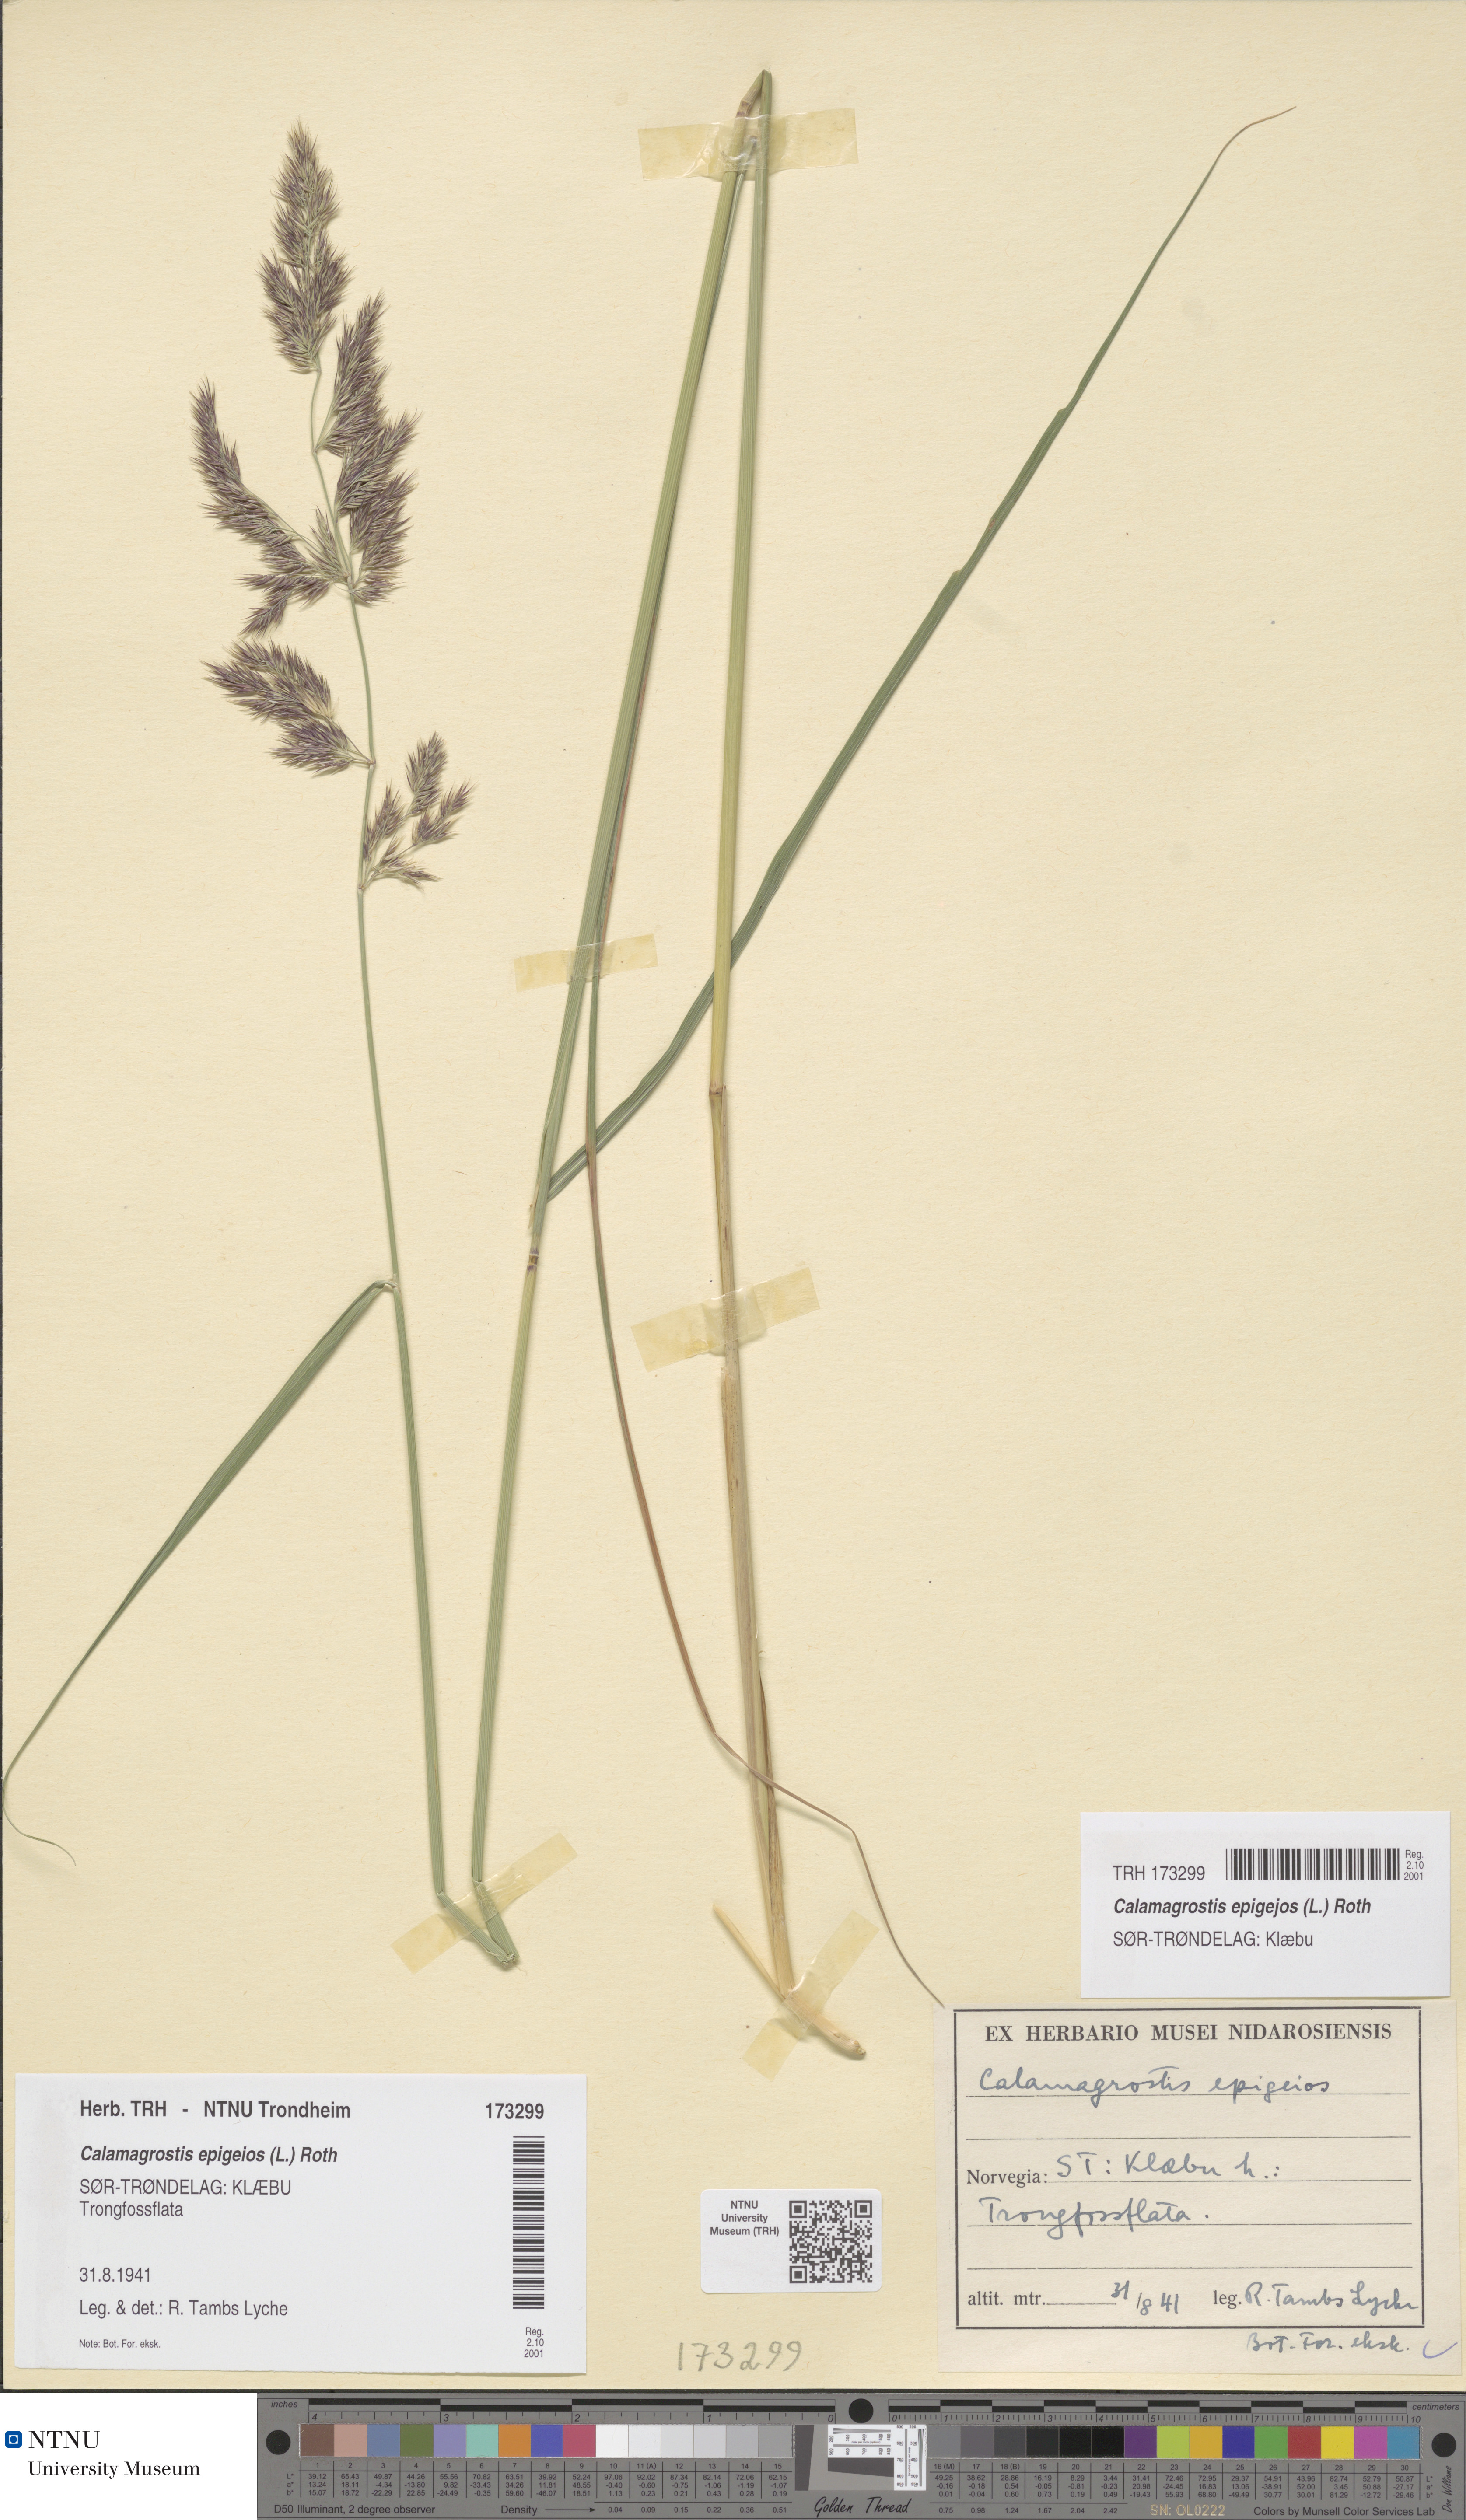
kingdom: Plantae
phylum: Tracheophyta
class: Liliopsida
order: Poales
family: Poaceae
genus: Calamagrostis
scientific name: Calamagrostis epigejos
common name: Wood small-reed
